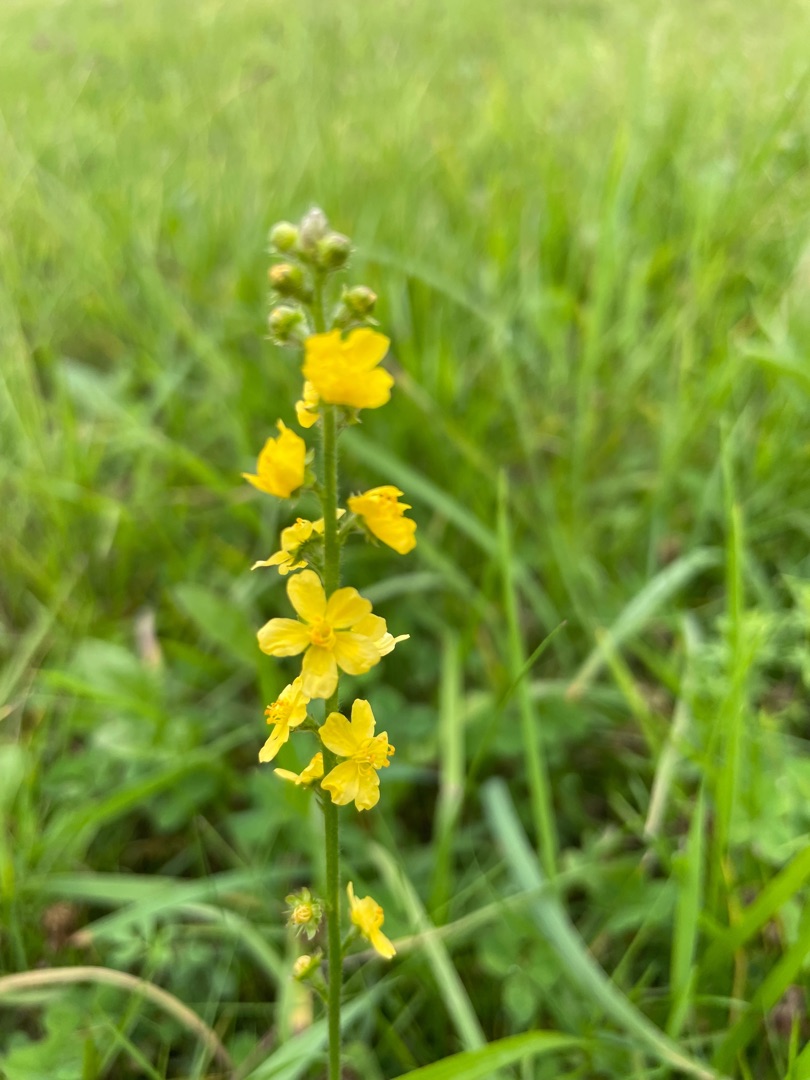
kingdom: Plantae
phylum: Tracheophyta
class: Magnoliopsida
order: Rosales
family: Rosaceae
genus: Agrimonia
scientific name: Agrimonia eupatoria
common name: Almindelig agermåne
